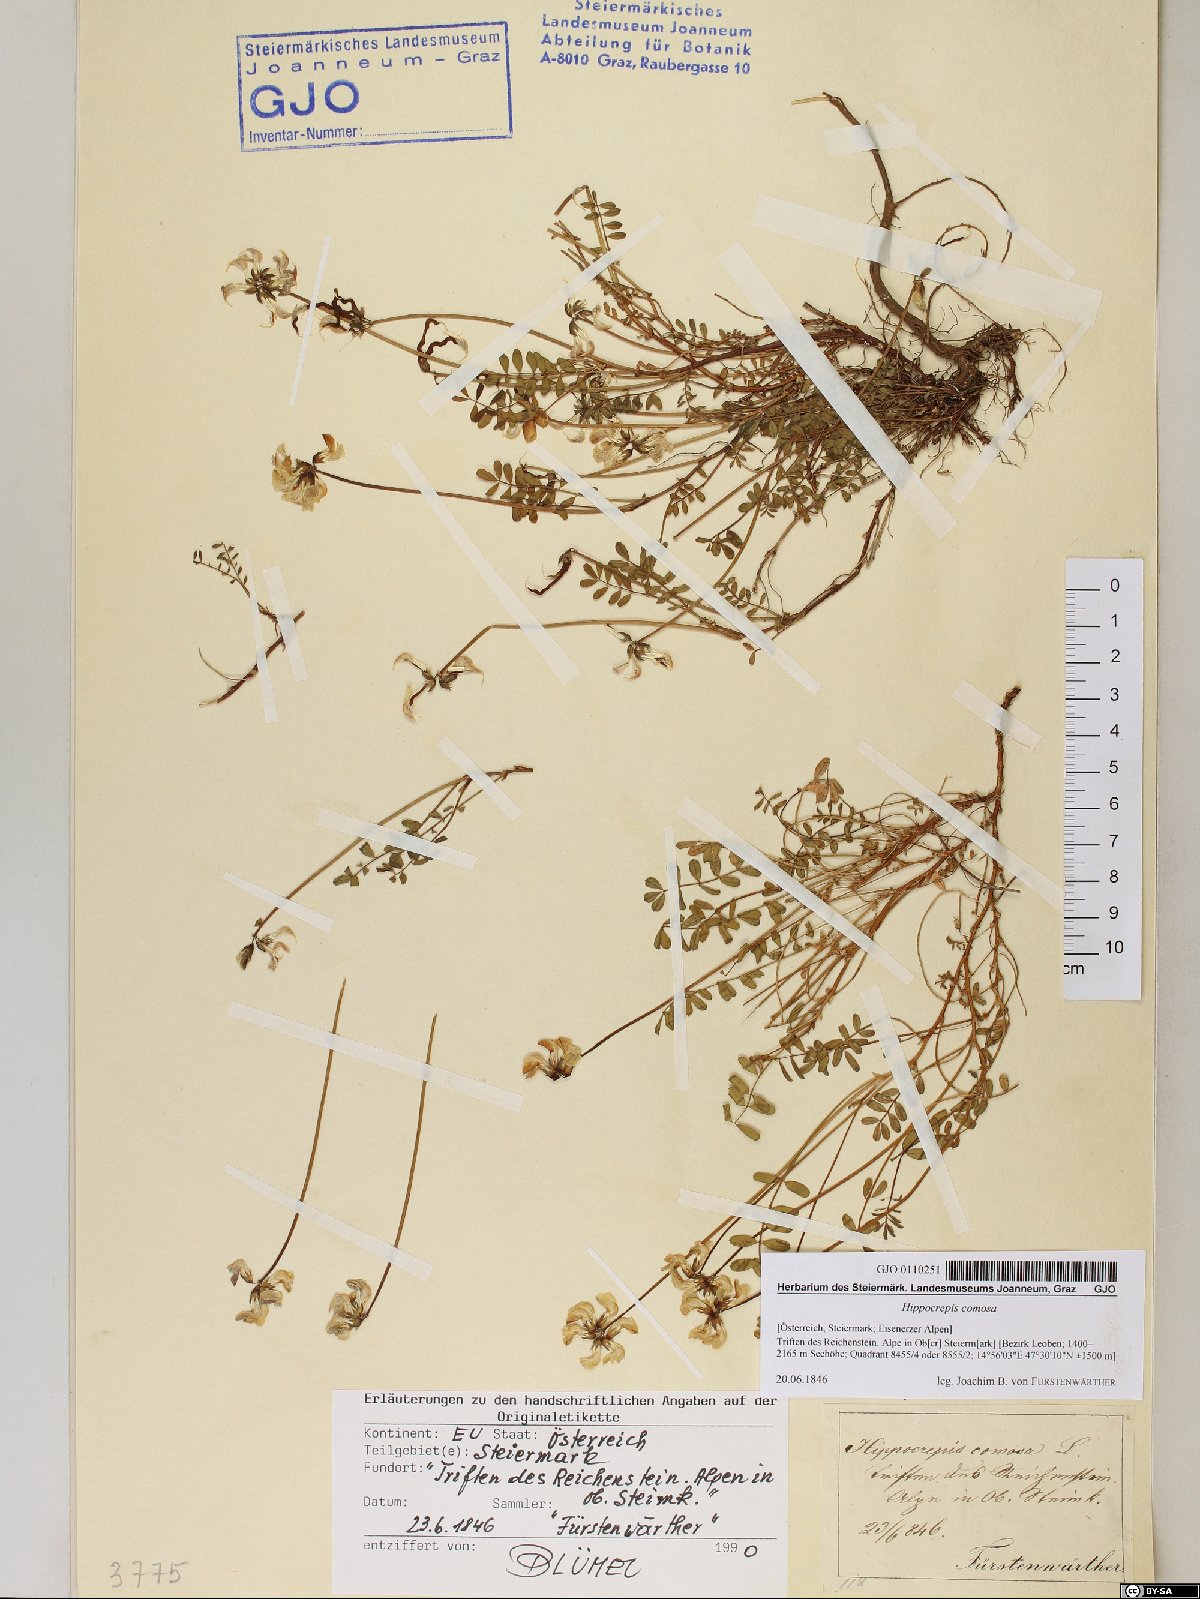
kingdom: Plantae
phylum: Tracheophyta
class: Magnoliopsida
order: Fabales
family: Fabaceae
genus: Hippocrepis
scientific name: Hippocrepis comosa
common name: Horseshoe vetch
